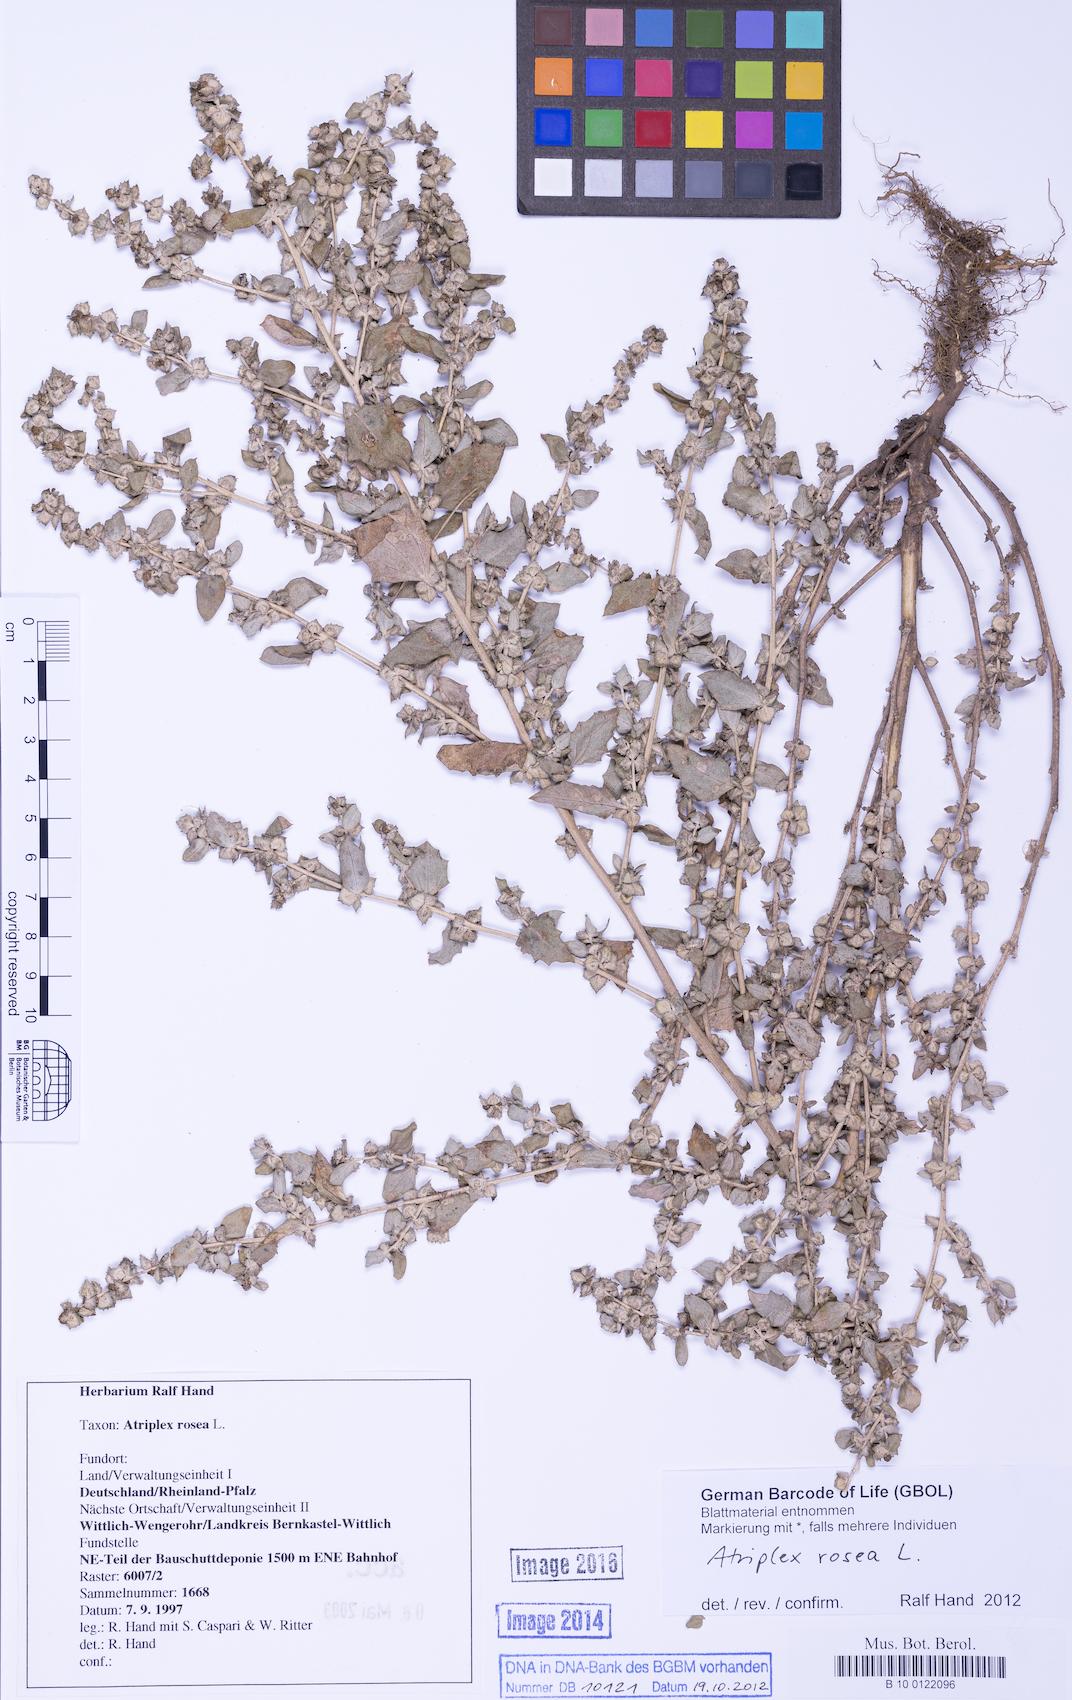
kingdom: Plantae
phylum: Tracheophyta
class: Magnoliopsida
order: Caryophyllales
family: Amaranthaceae
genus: Atriplex
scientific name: Atriplex rosea
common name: Tumbling saltweed
